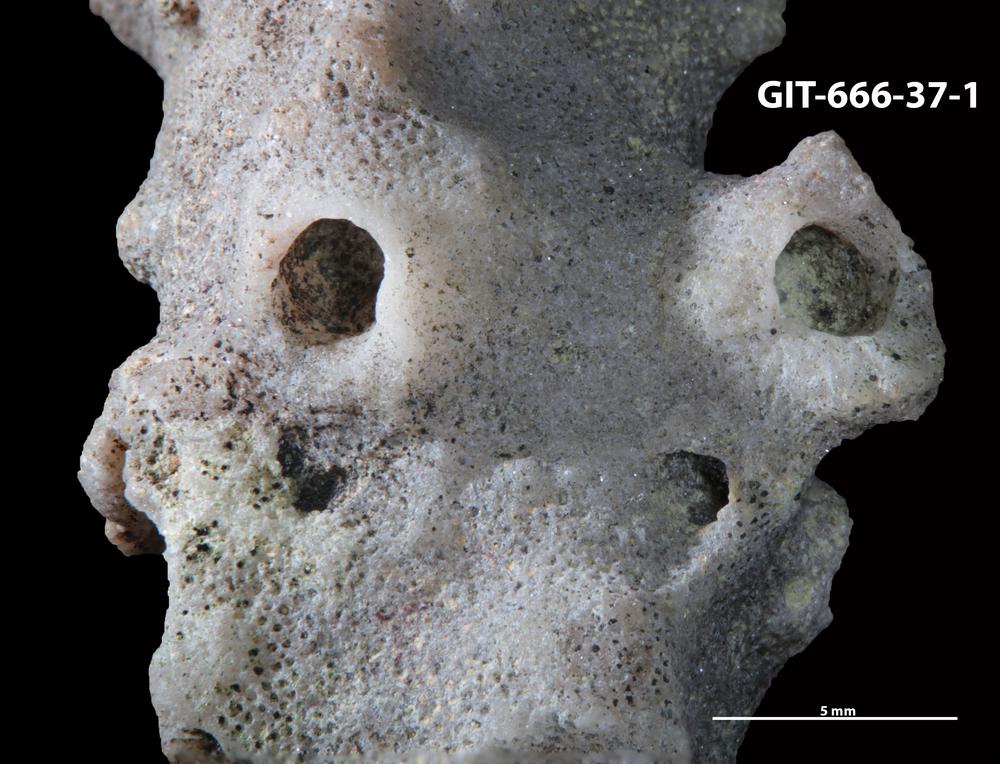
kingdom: Animalia
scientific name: Animalia
